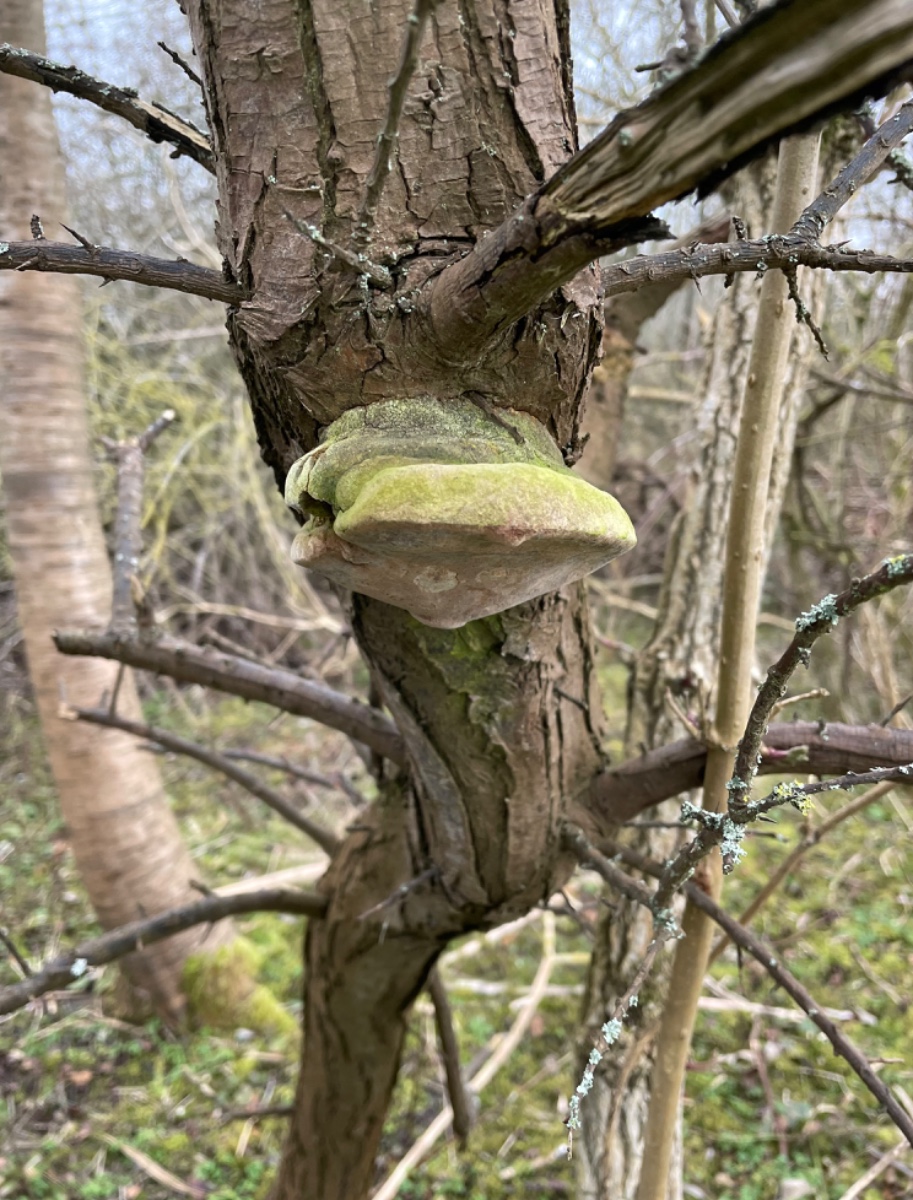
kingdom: Fungi
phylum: Basidiomycota
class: Agaricomycetes
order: Hymenochaetales
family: Hymenochaetaceae
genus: Fomitiporia
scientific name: Fomitiporia hippophaeicola
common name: havtorn-ildporesvamp
